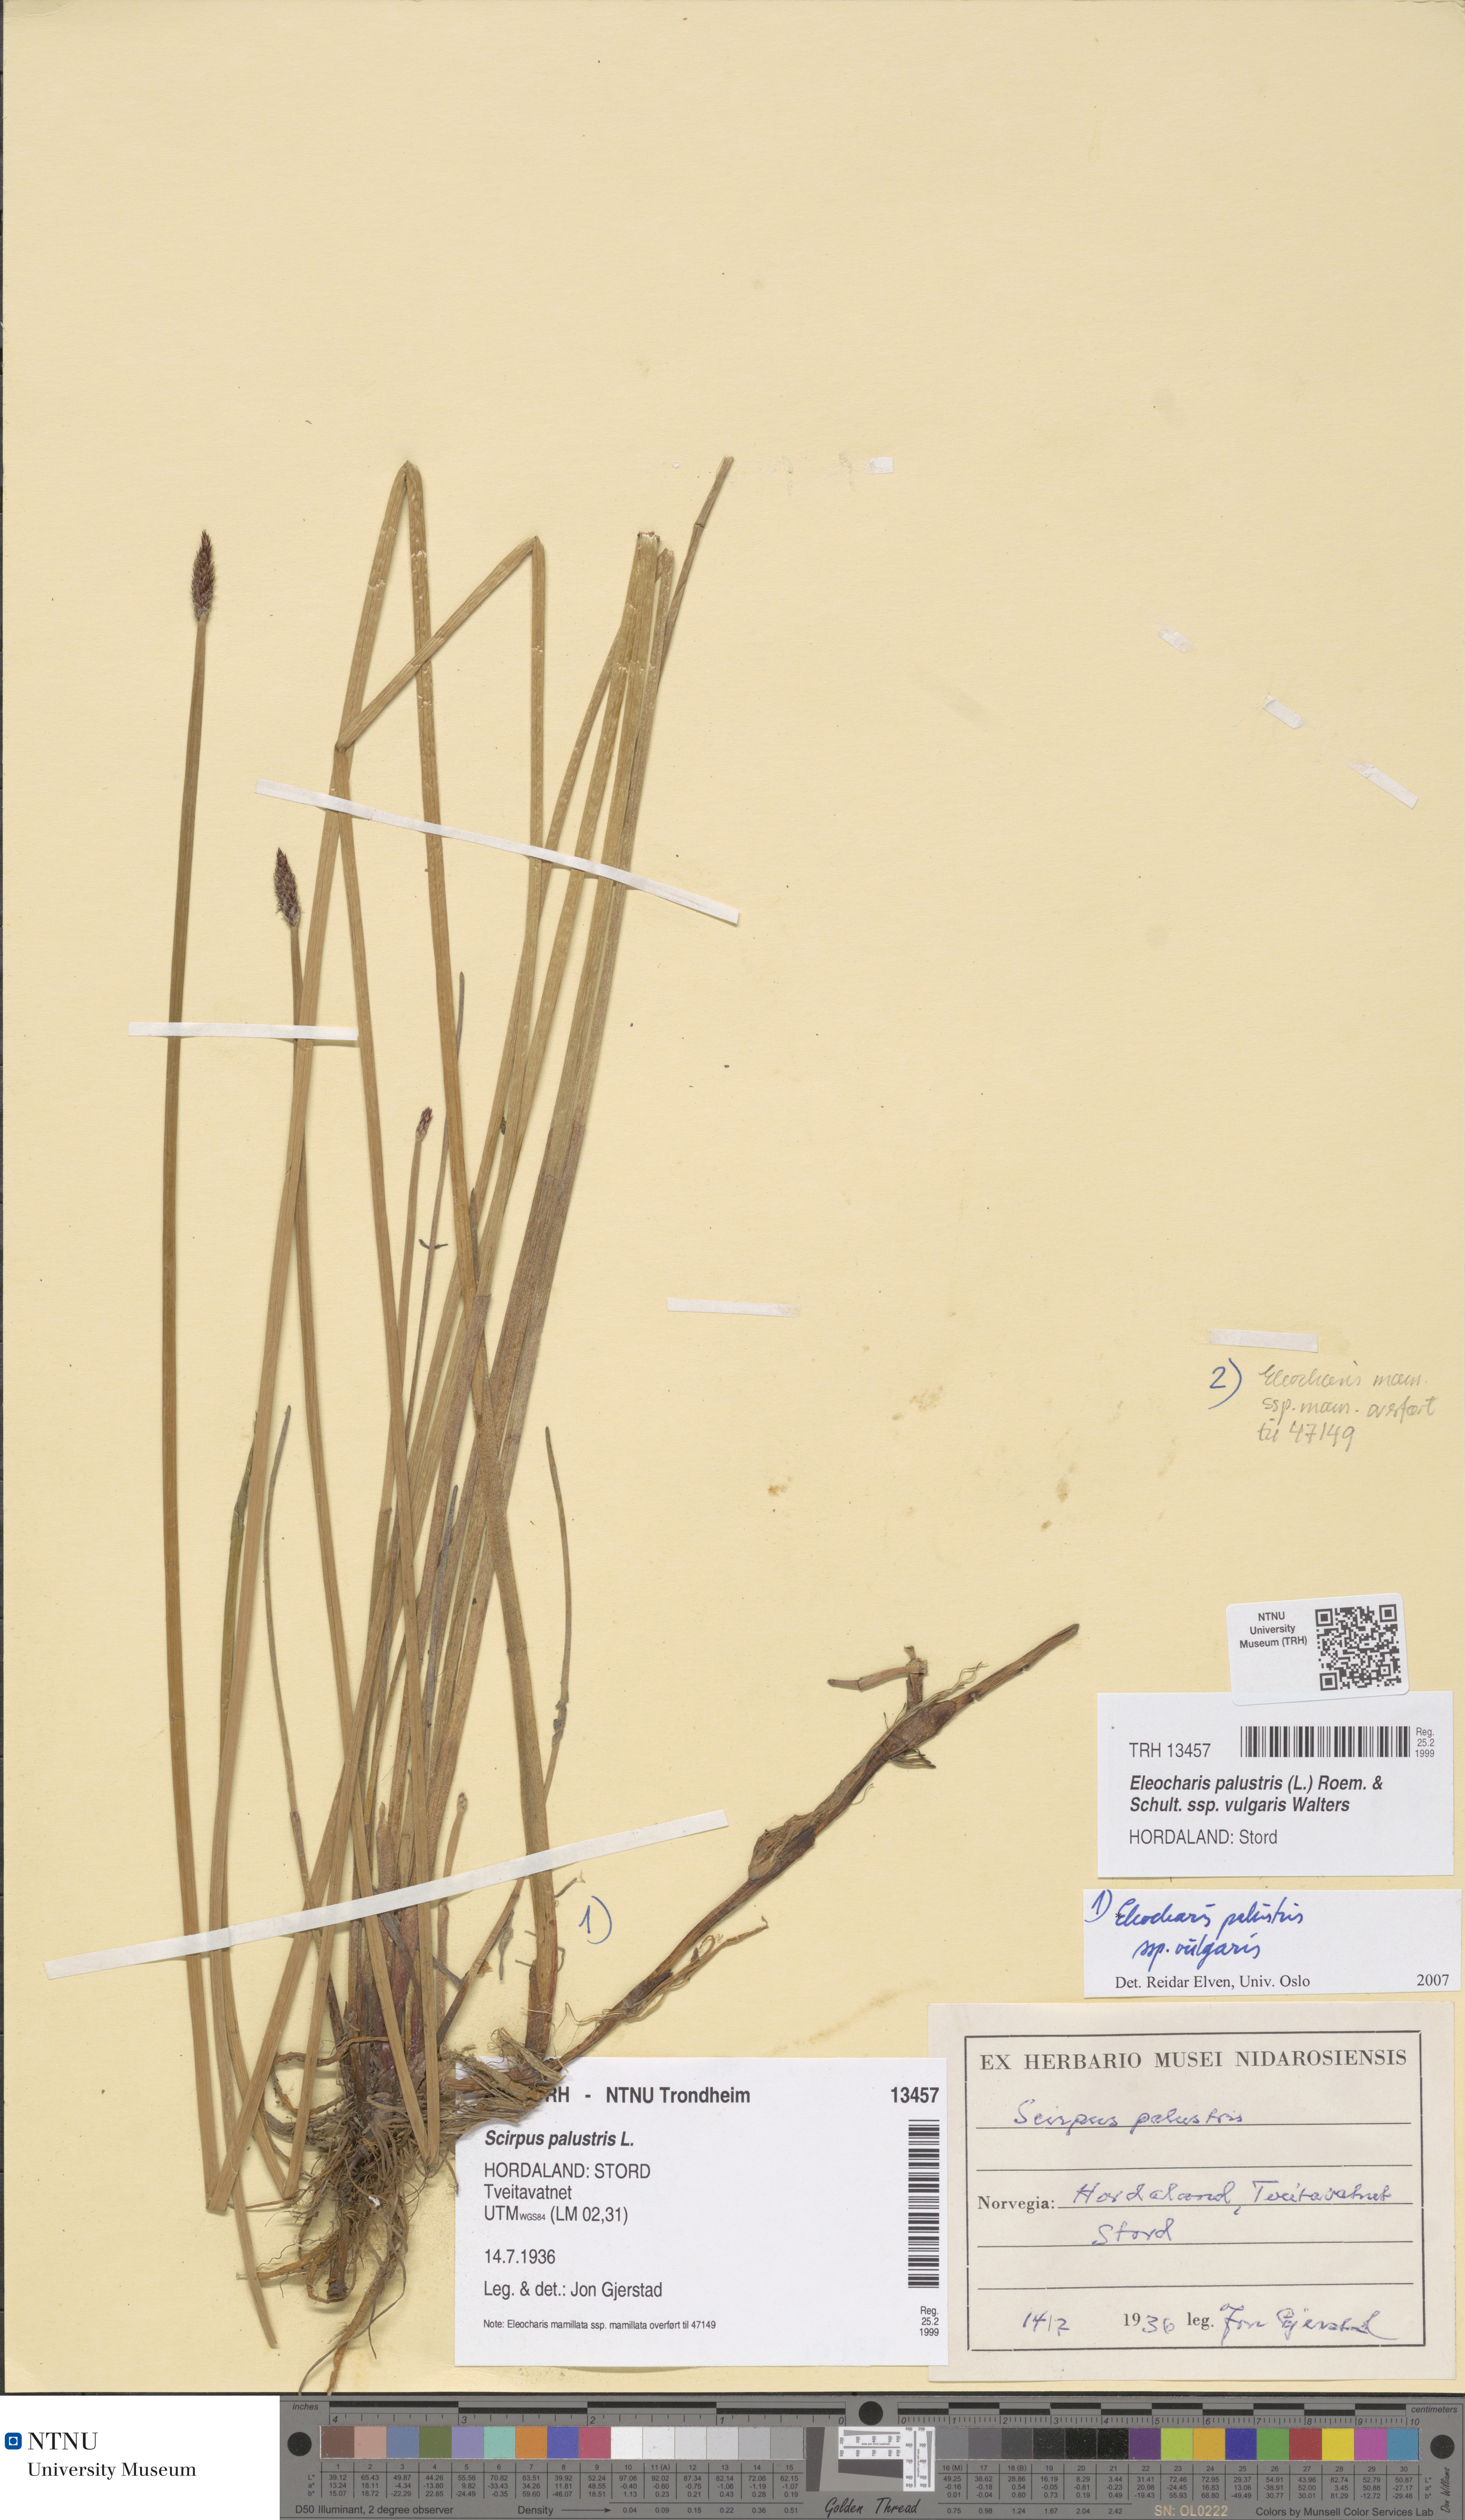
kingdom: Plantae
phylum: Tracheophyta
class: Liliopsida
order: Poales
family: Cyperaceae
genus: Eleocharis
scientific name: Eleocharis palustris
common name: Common spike-rush
